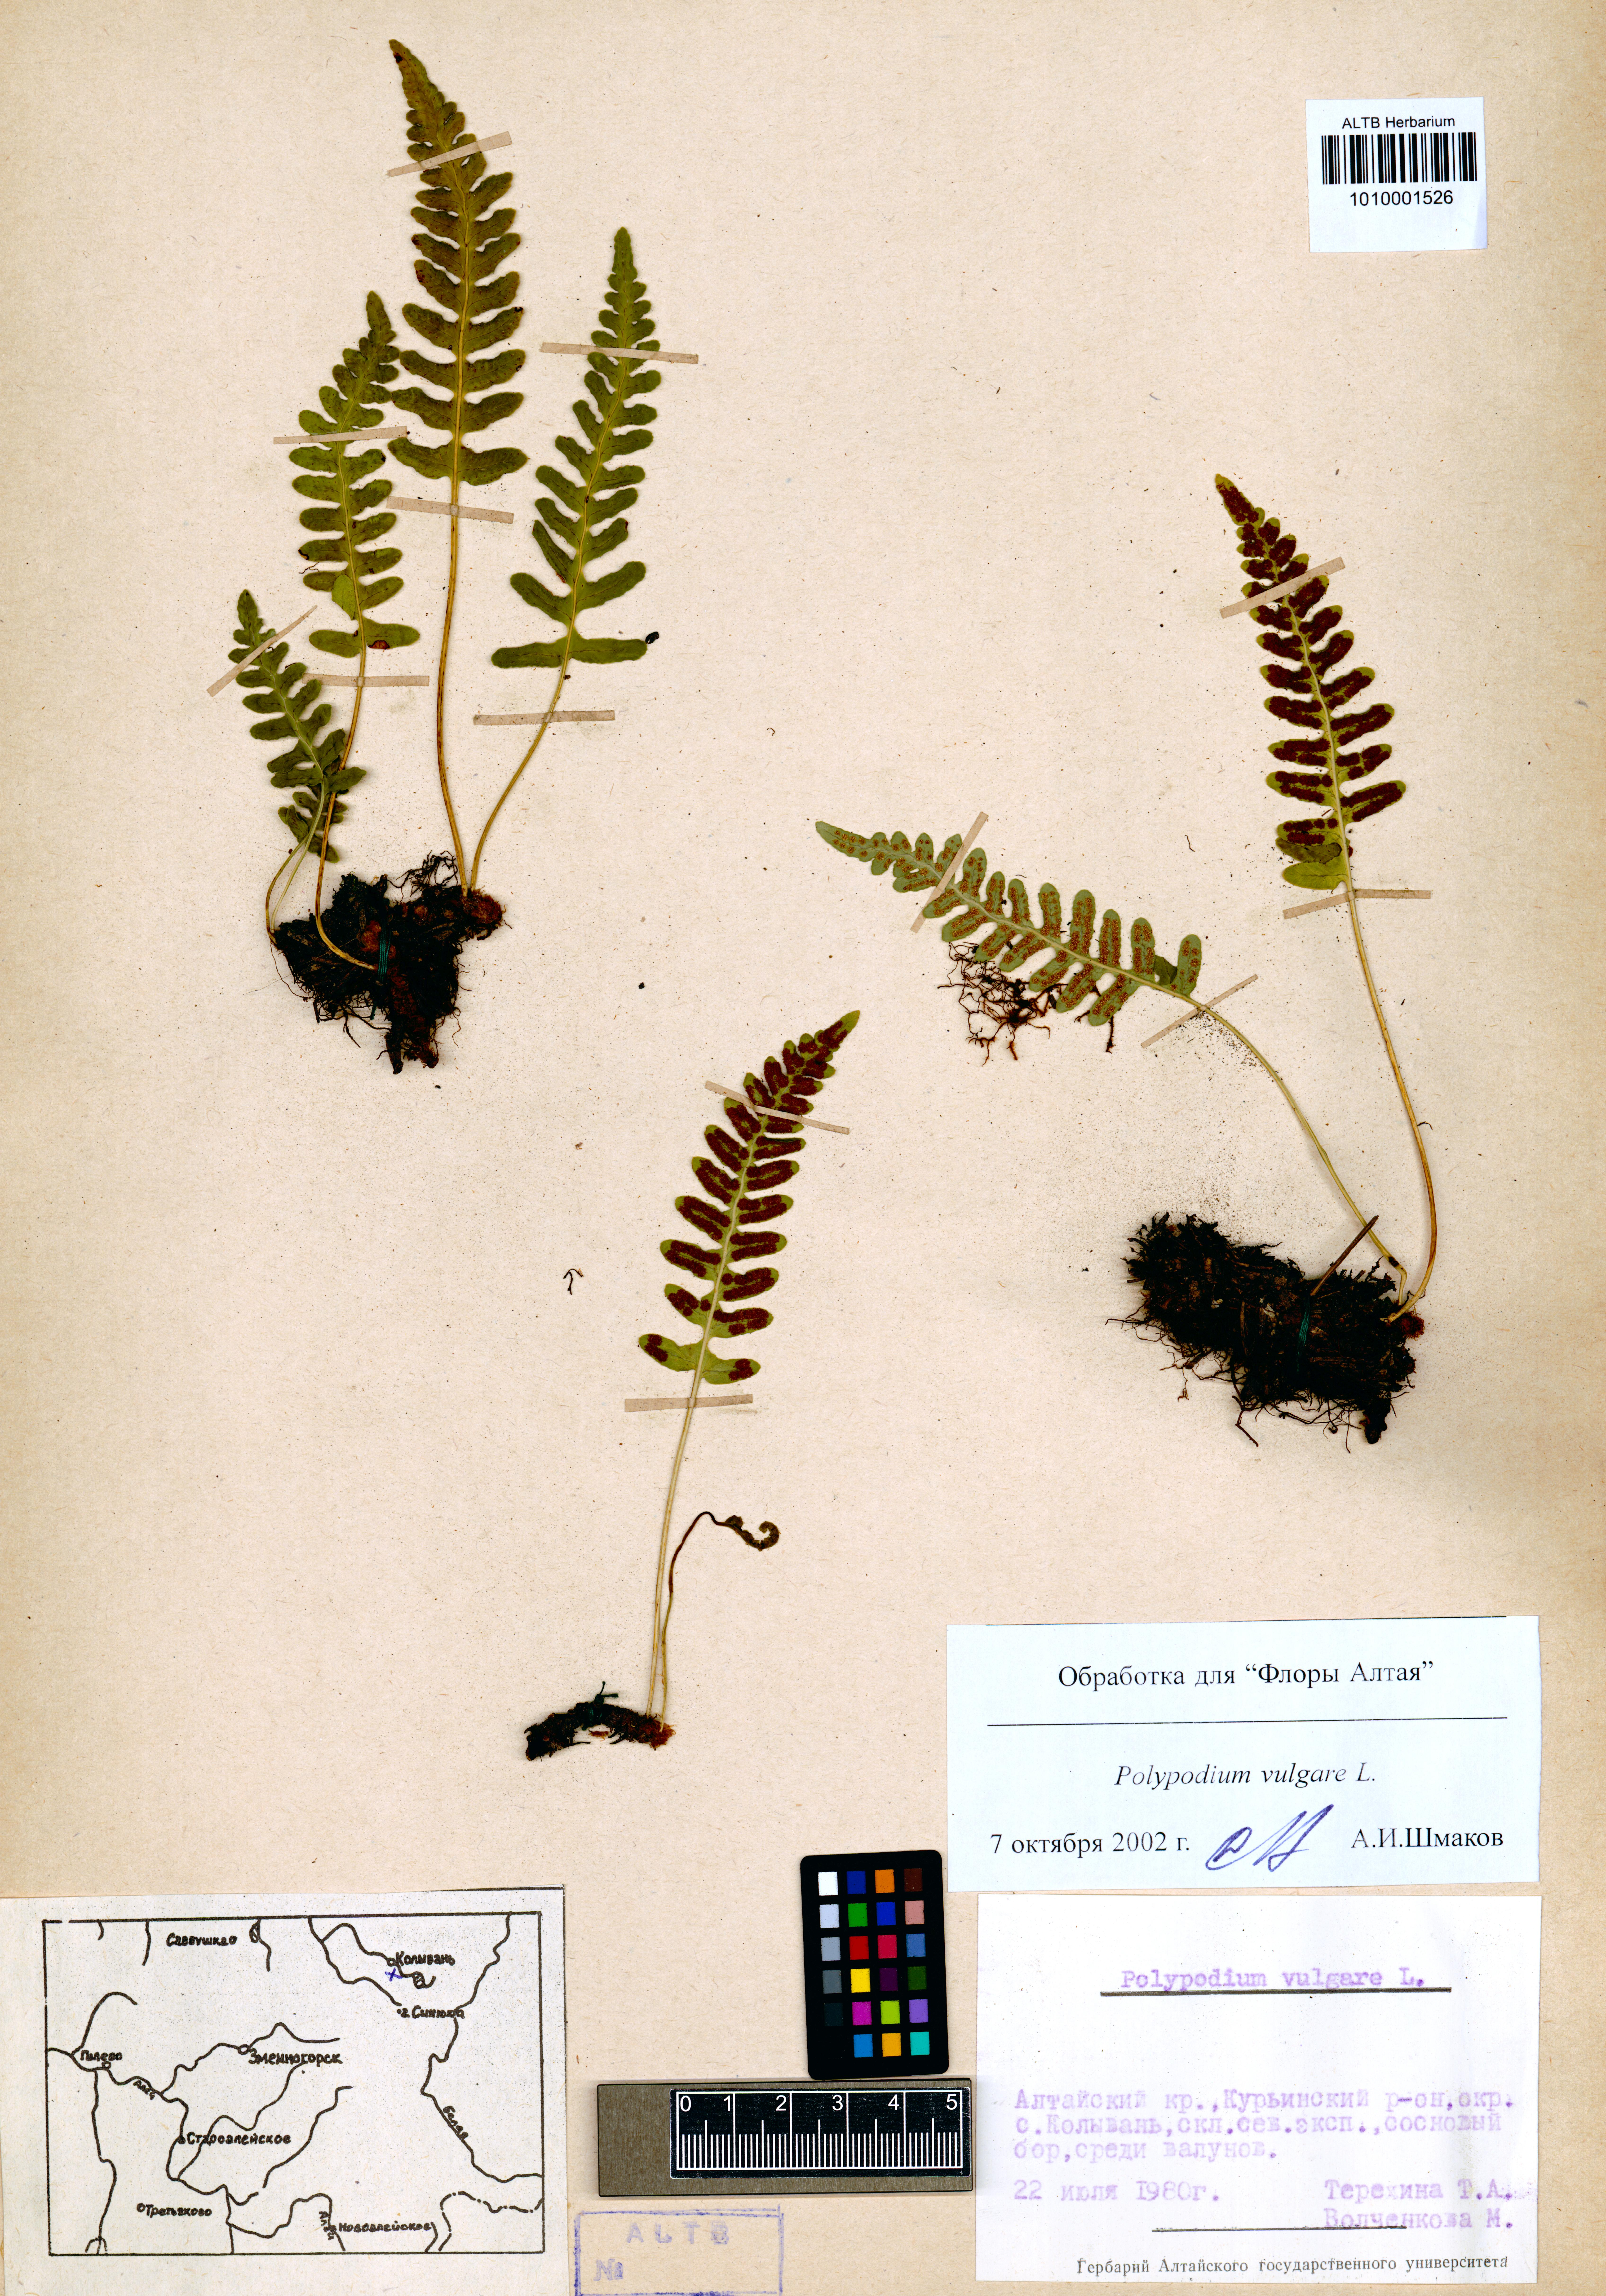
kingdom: Plantae
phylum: Tracheophyta
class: Polypodiopsida
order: Polypodiales
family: Polypodiaceae
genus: Polypodium
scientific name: Polypodium vulgare
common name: Common polypody
